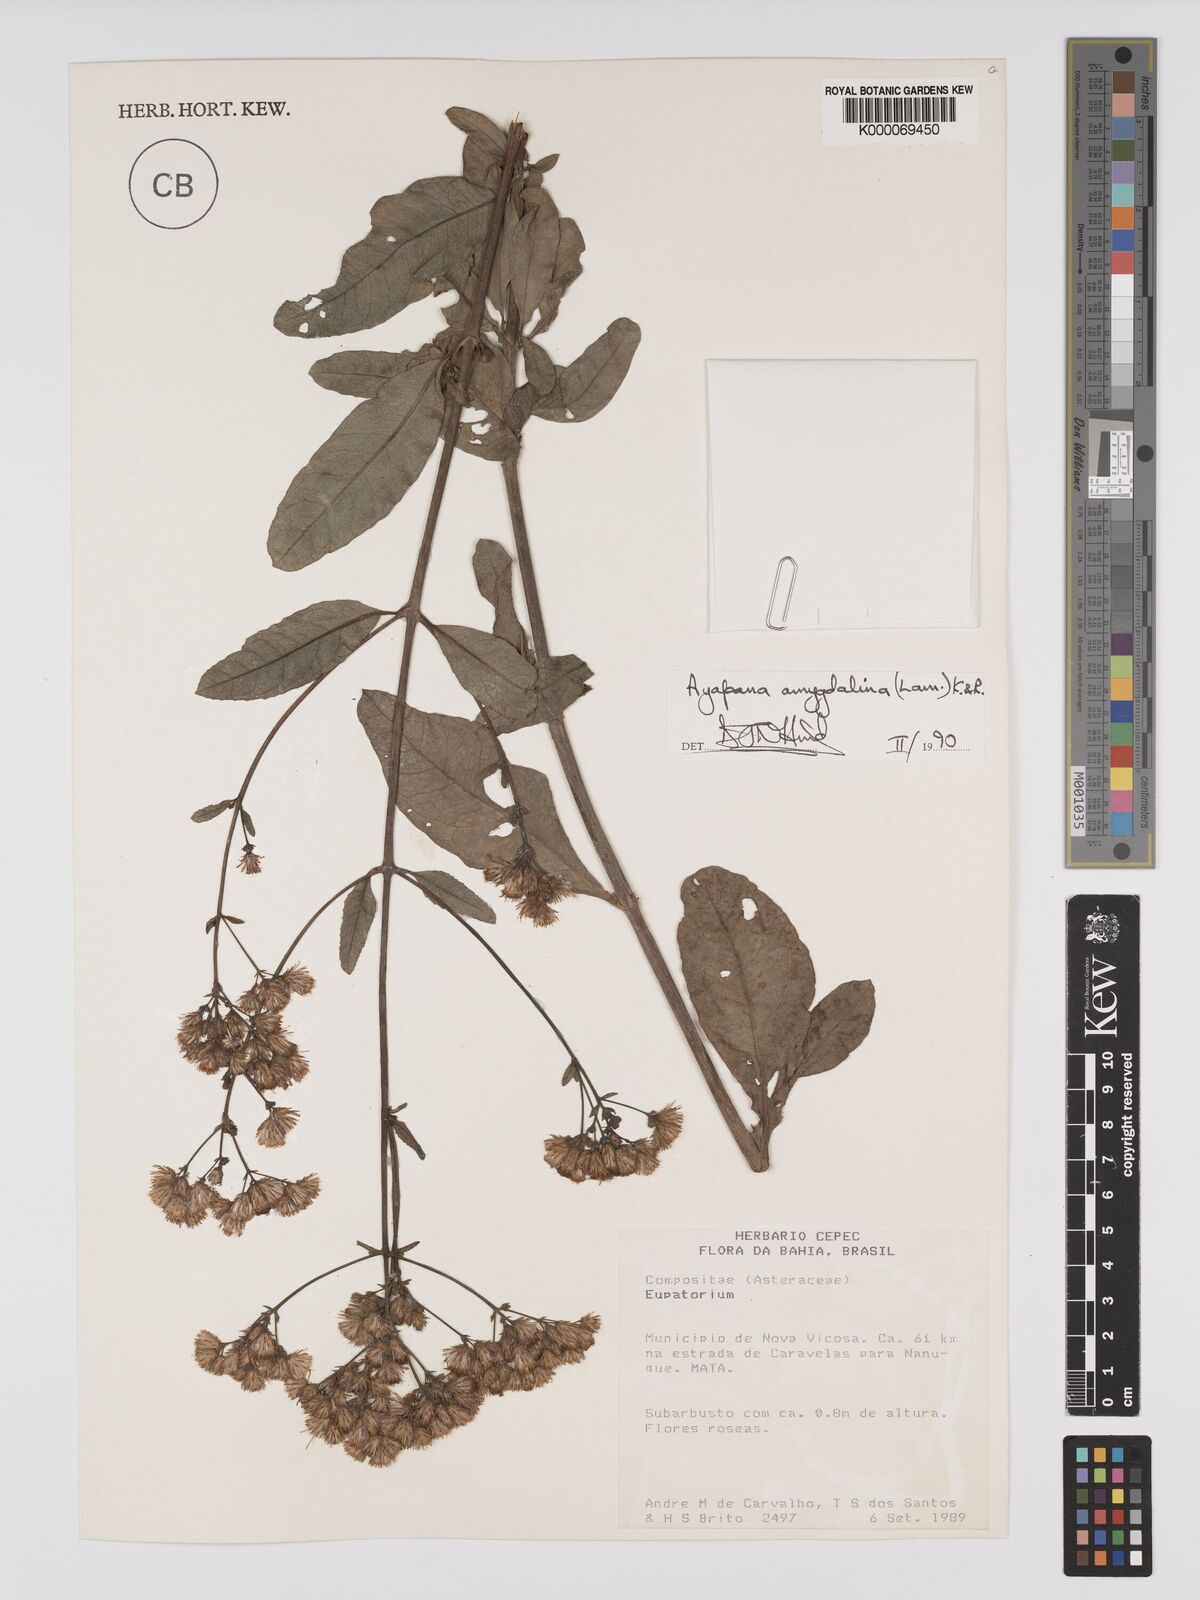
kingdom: Plantae
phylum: Tracheophyta
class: Magnoliopsida
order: Asterales
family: Asteraceae
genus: Ayapana
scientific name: Ayapana amygdalina
